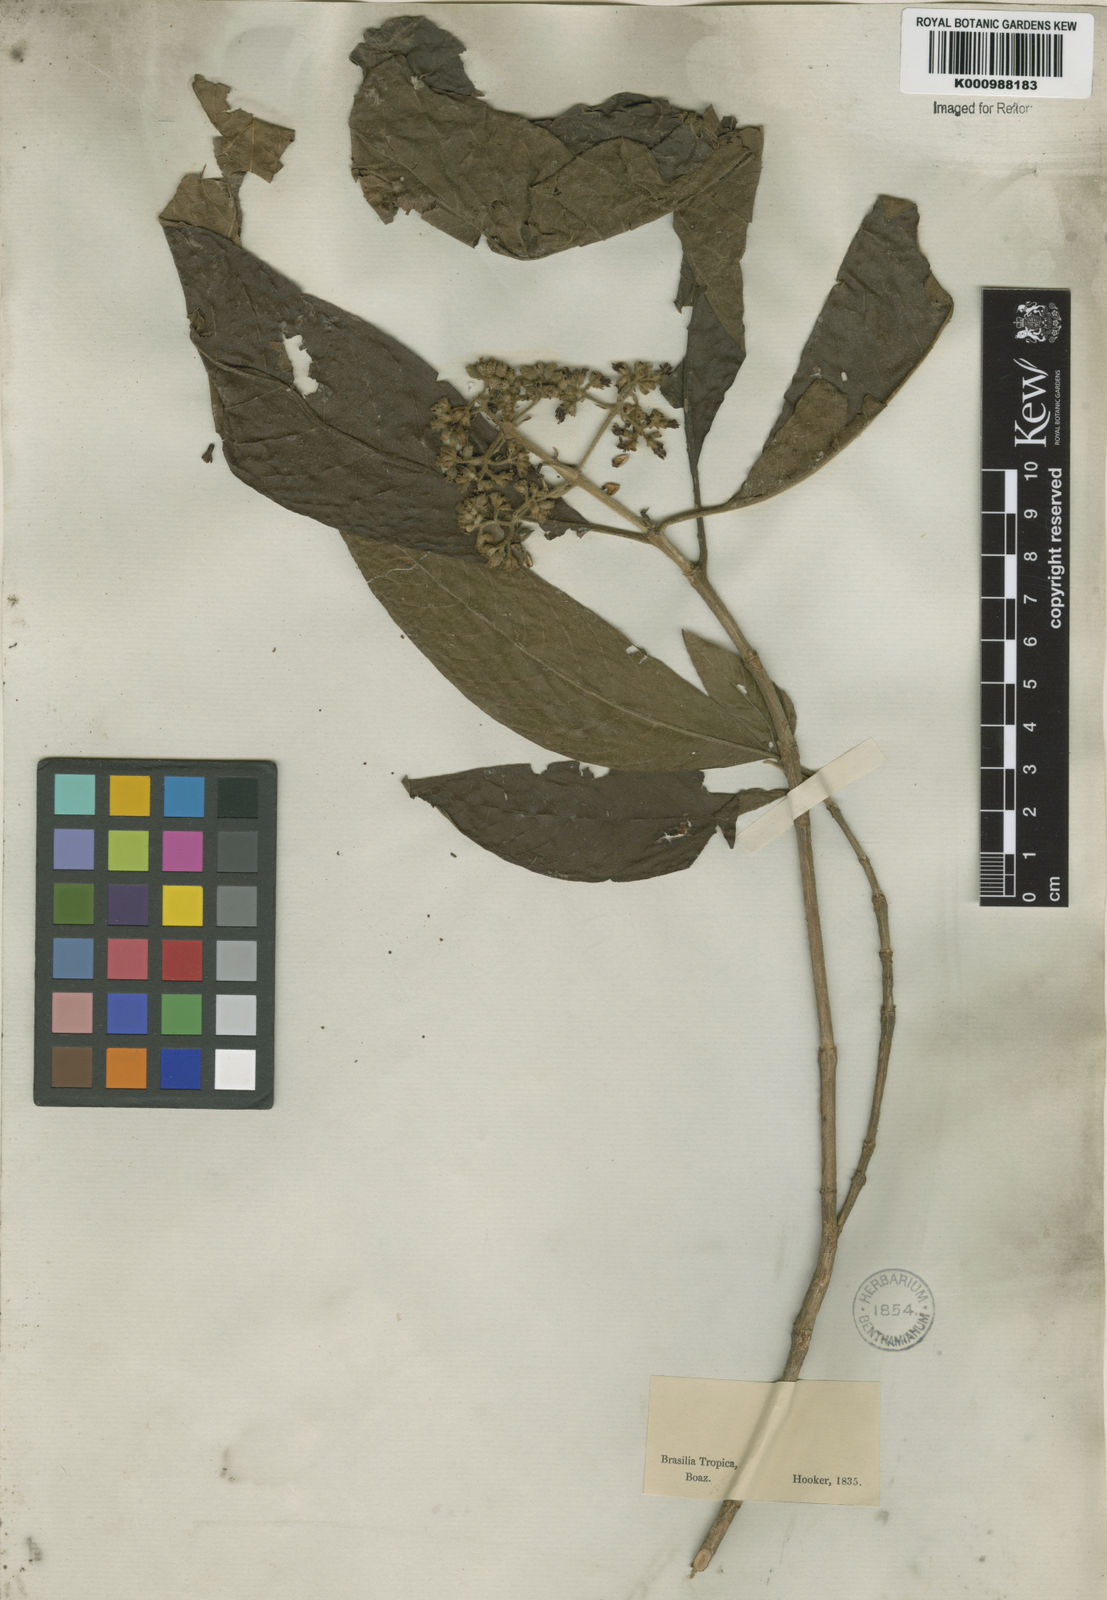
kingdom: Plantae
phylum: Tracheophyta
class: Magnoliopsida
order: Gentianales
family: Rubiaceae
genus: Bathysa
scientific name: Bathysa
